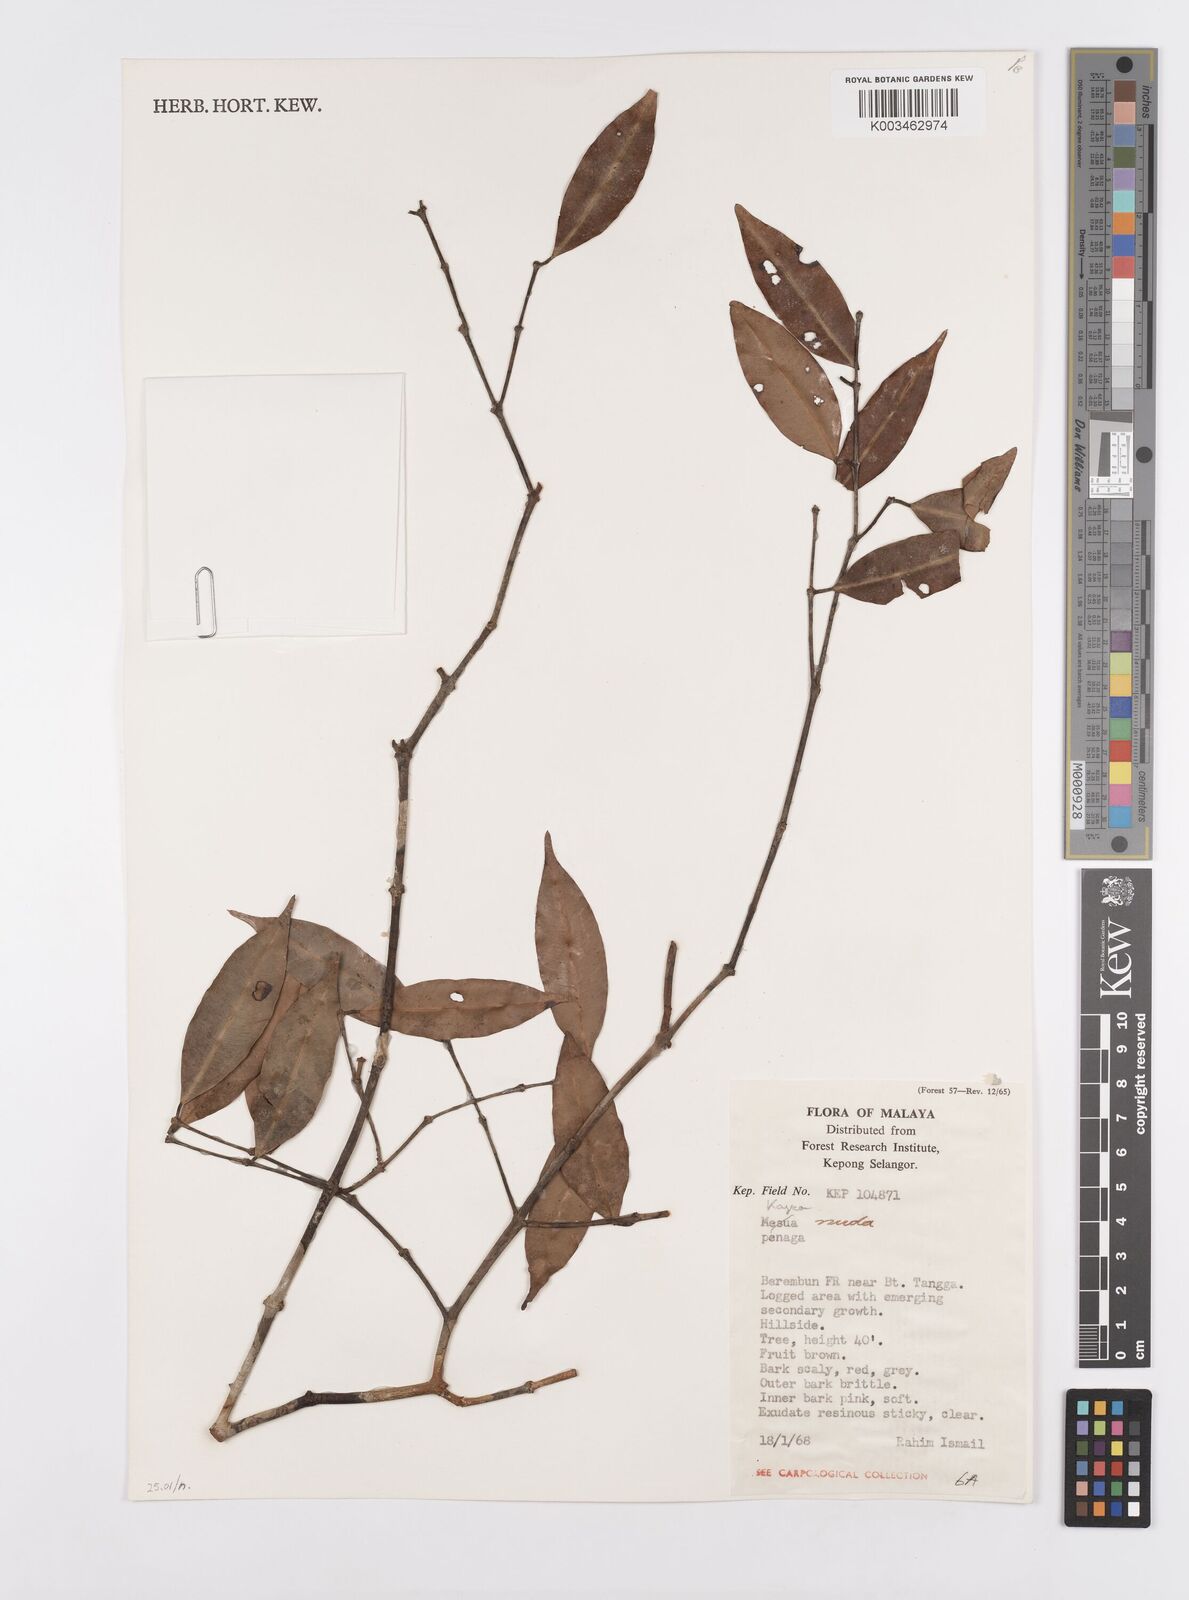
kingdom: Plantae
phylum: Tracheophyta
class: Magnoliopsida
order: Malpighiales
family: Calophyllaceae
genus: Kayea
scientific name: Kayea
